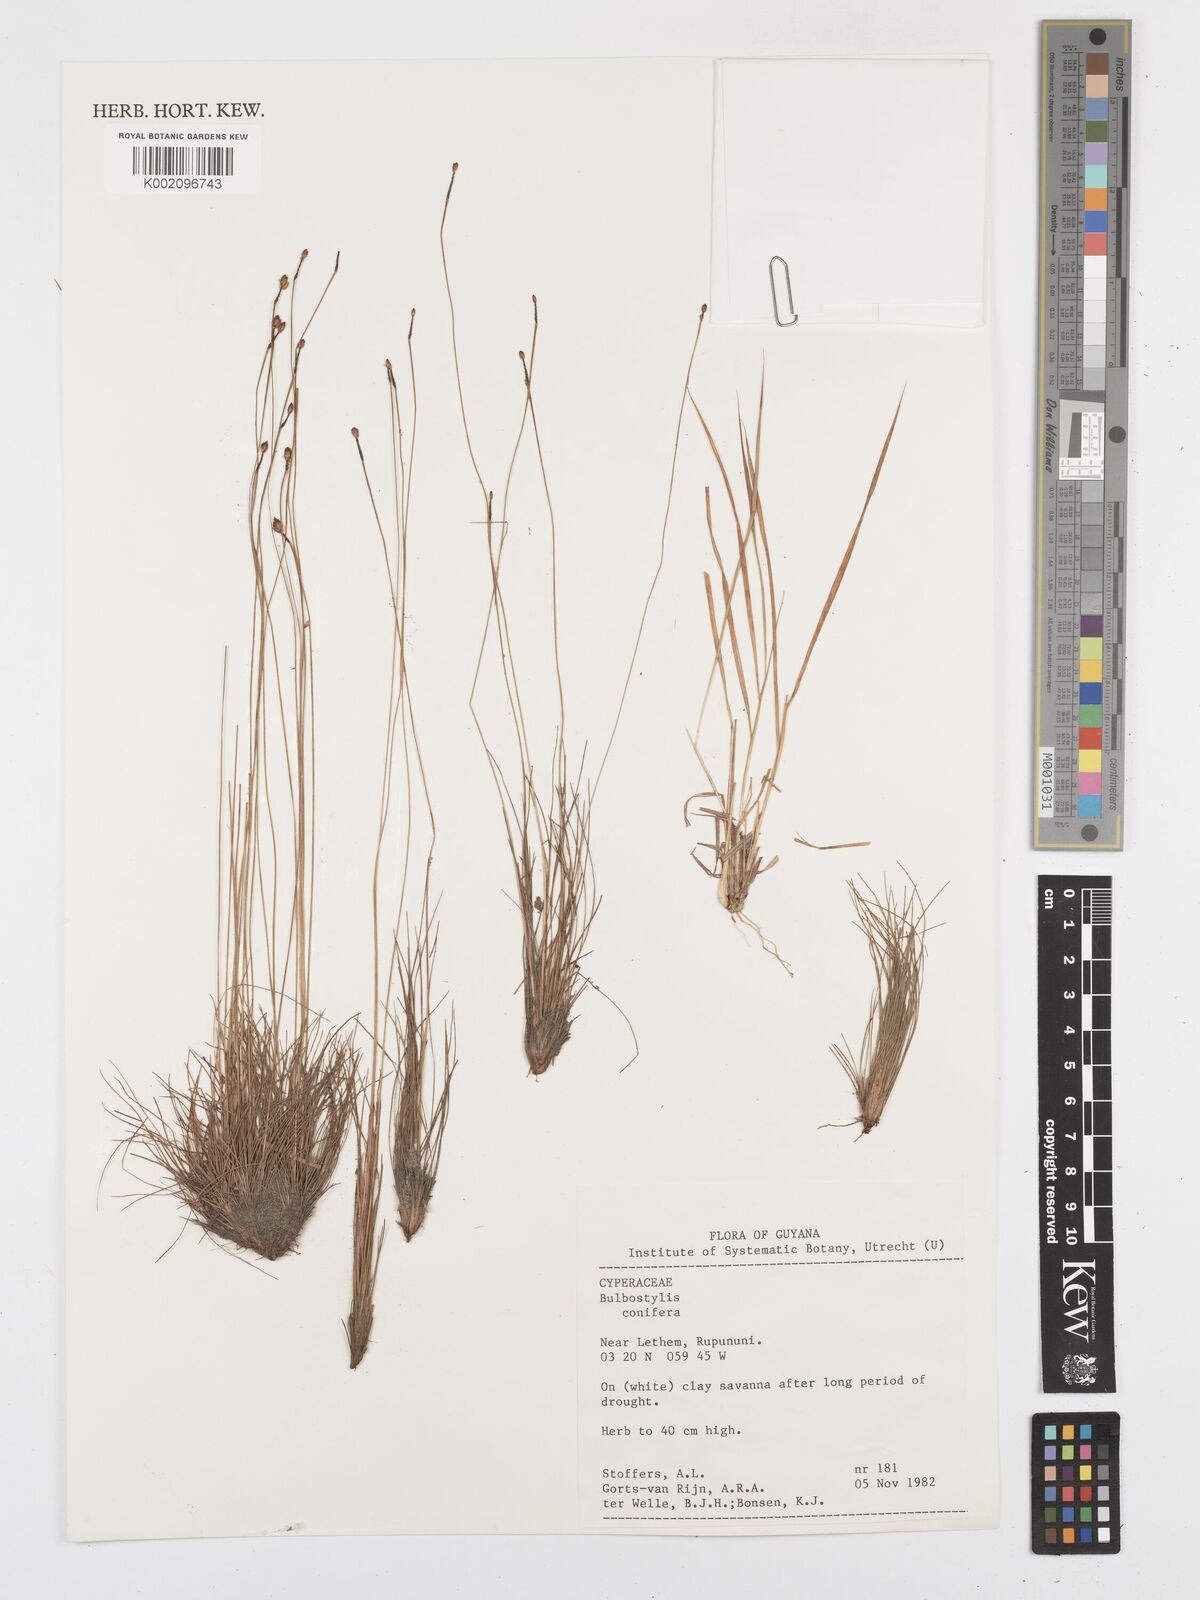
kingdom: Plantae
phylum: Tracheophyta
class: Liliopsida
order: Poales
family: Cyperaceae
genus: Bulbostylis
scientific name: Bulbostylis conifera
